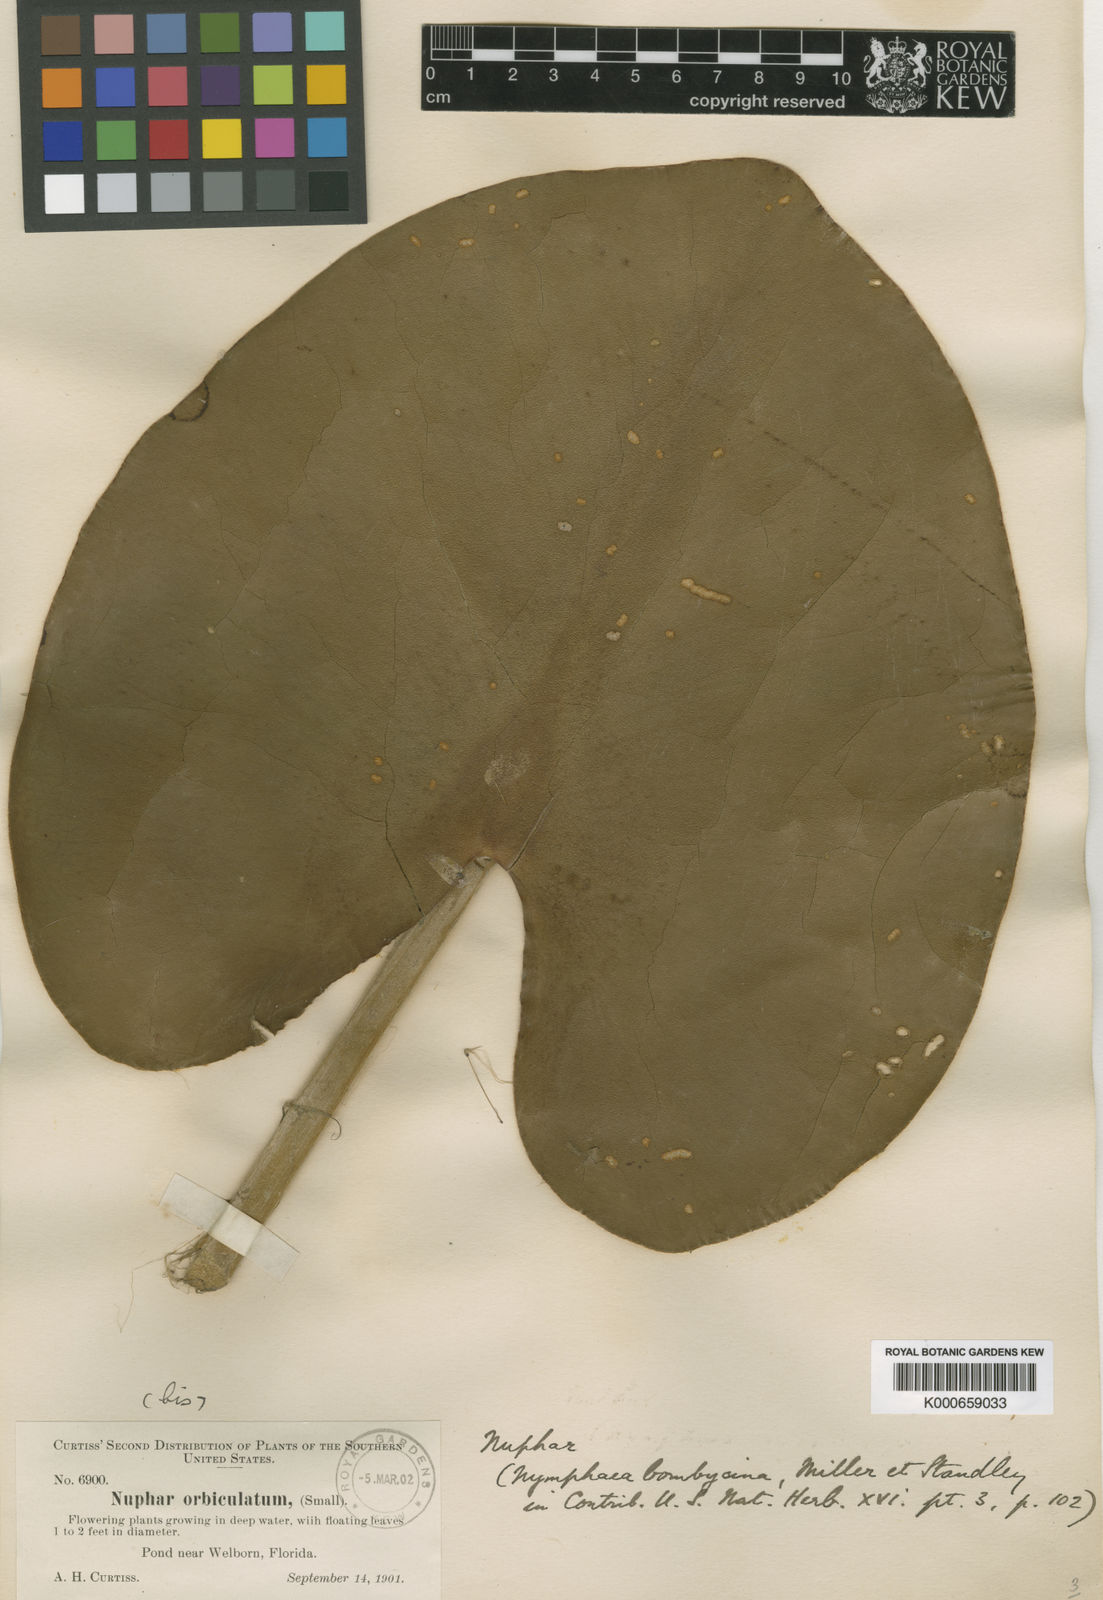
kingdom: Plantae
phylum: Tracheophyta
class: Magnoliopsida
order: Nymphaeales
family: Nymphaeaceae
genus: Nuphar
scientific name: Nuphar advena
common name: Spatter-dock
